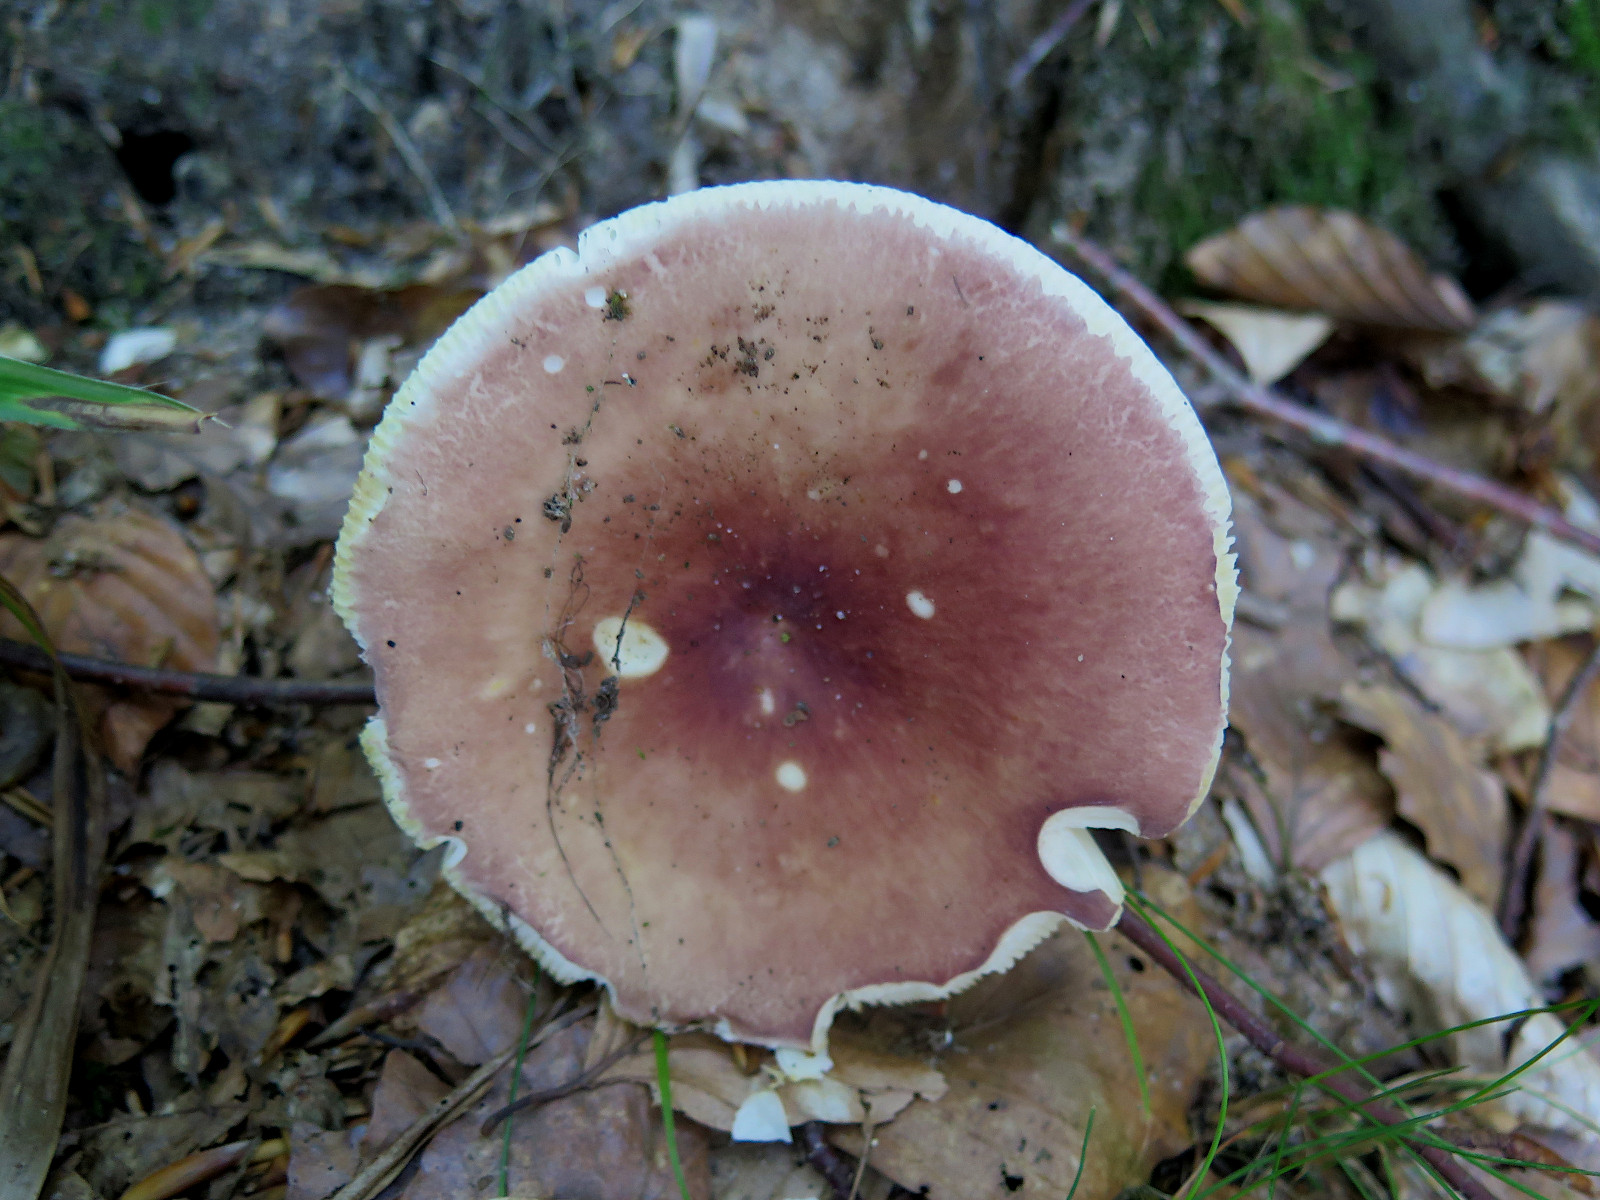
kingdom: Fungi
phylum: Basidiomycota
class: Agaricomycetes
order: Russulales
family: Russulaceae
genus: Russula
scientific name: Russula vesca
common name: spiselig skørhat
